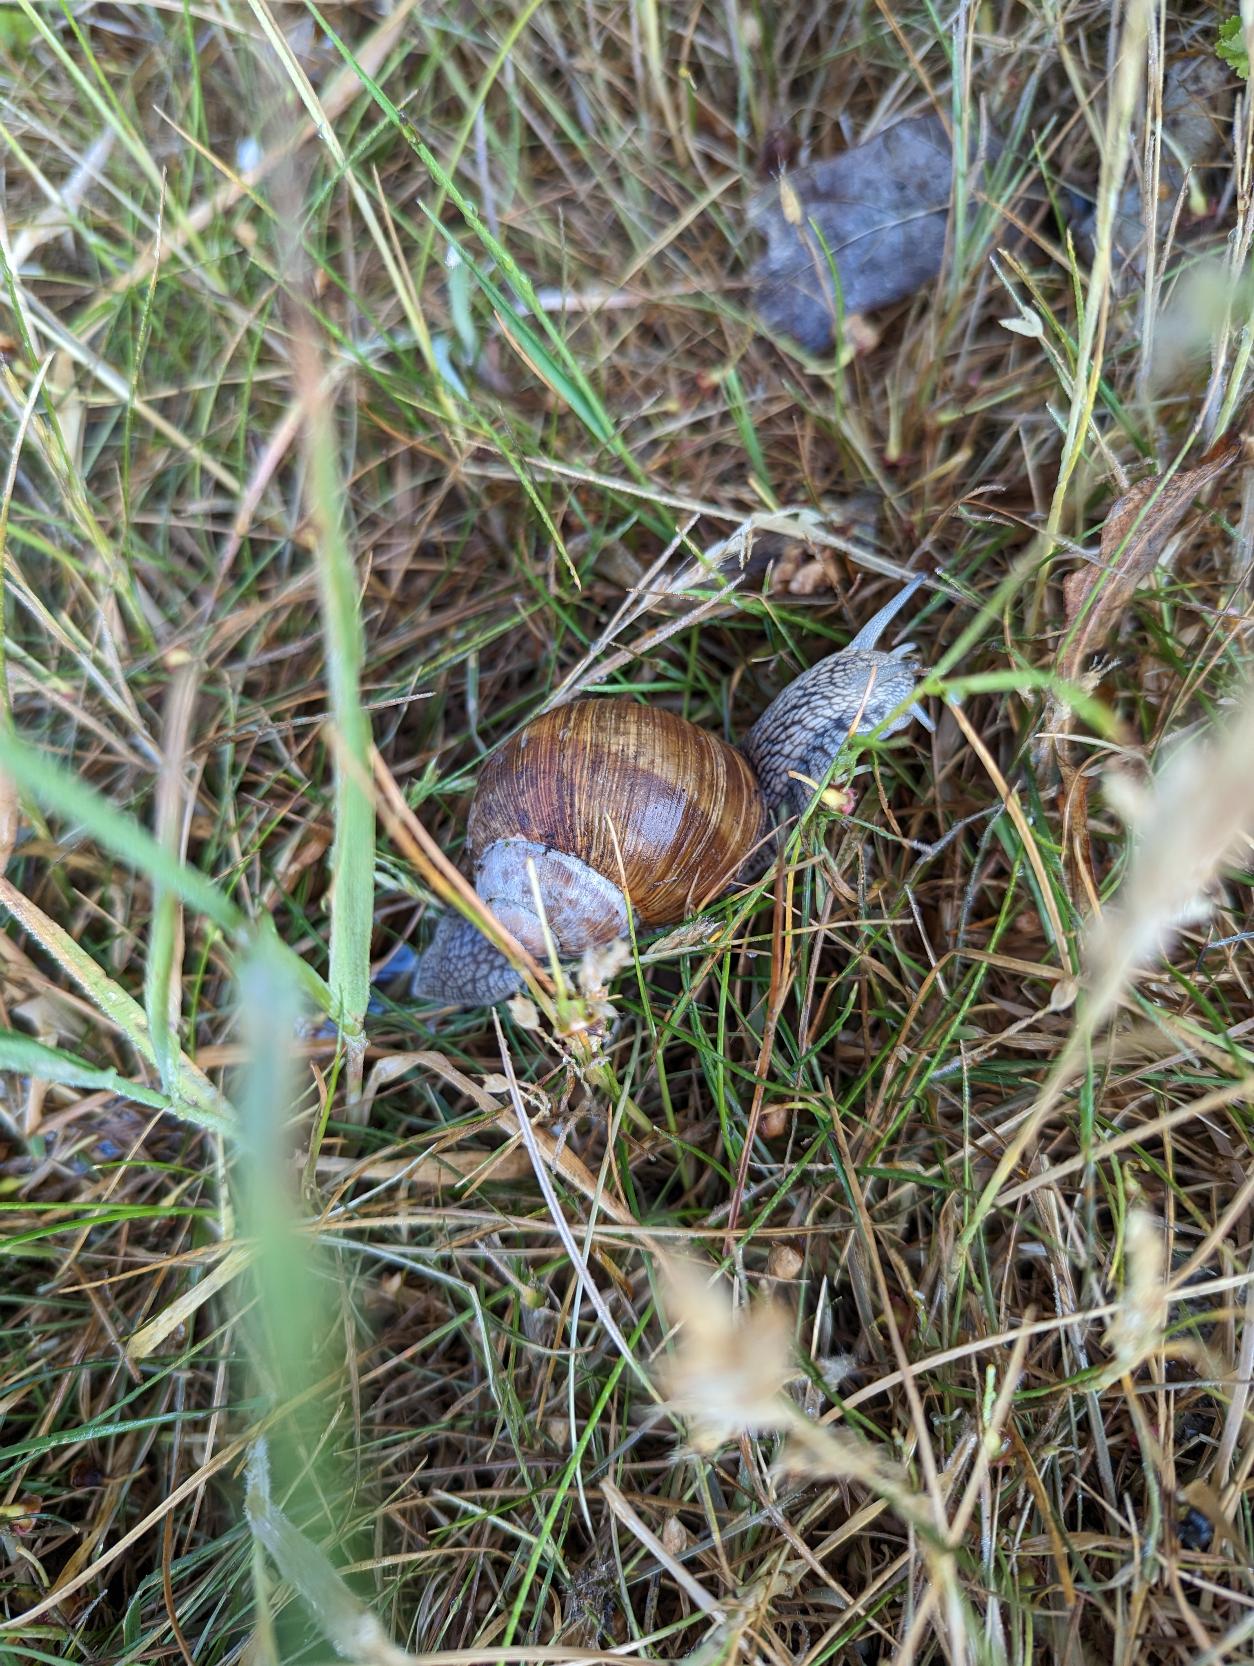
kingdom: Animalia
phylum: Mollusca
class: Gastropoda
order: Stylommatophora
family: Helicidae
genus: Helix
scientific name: Helix pomatia
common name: Vinbjergsnegl
